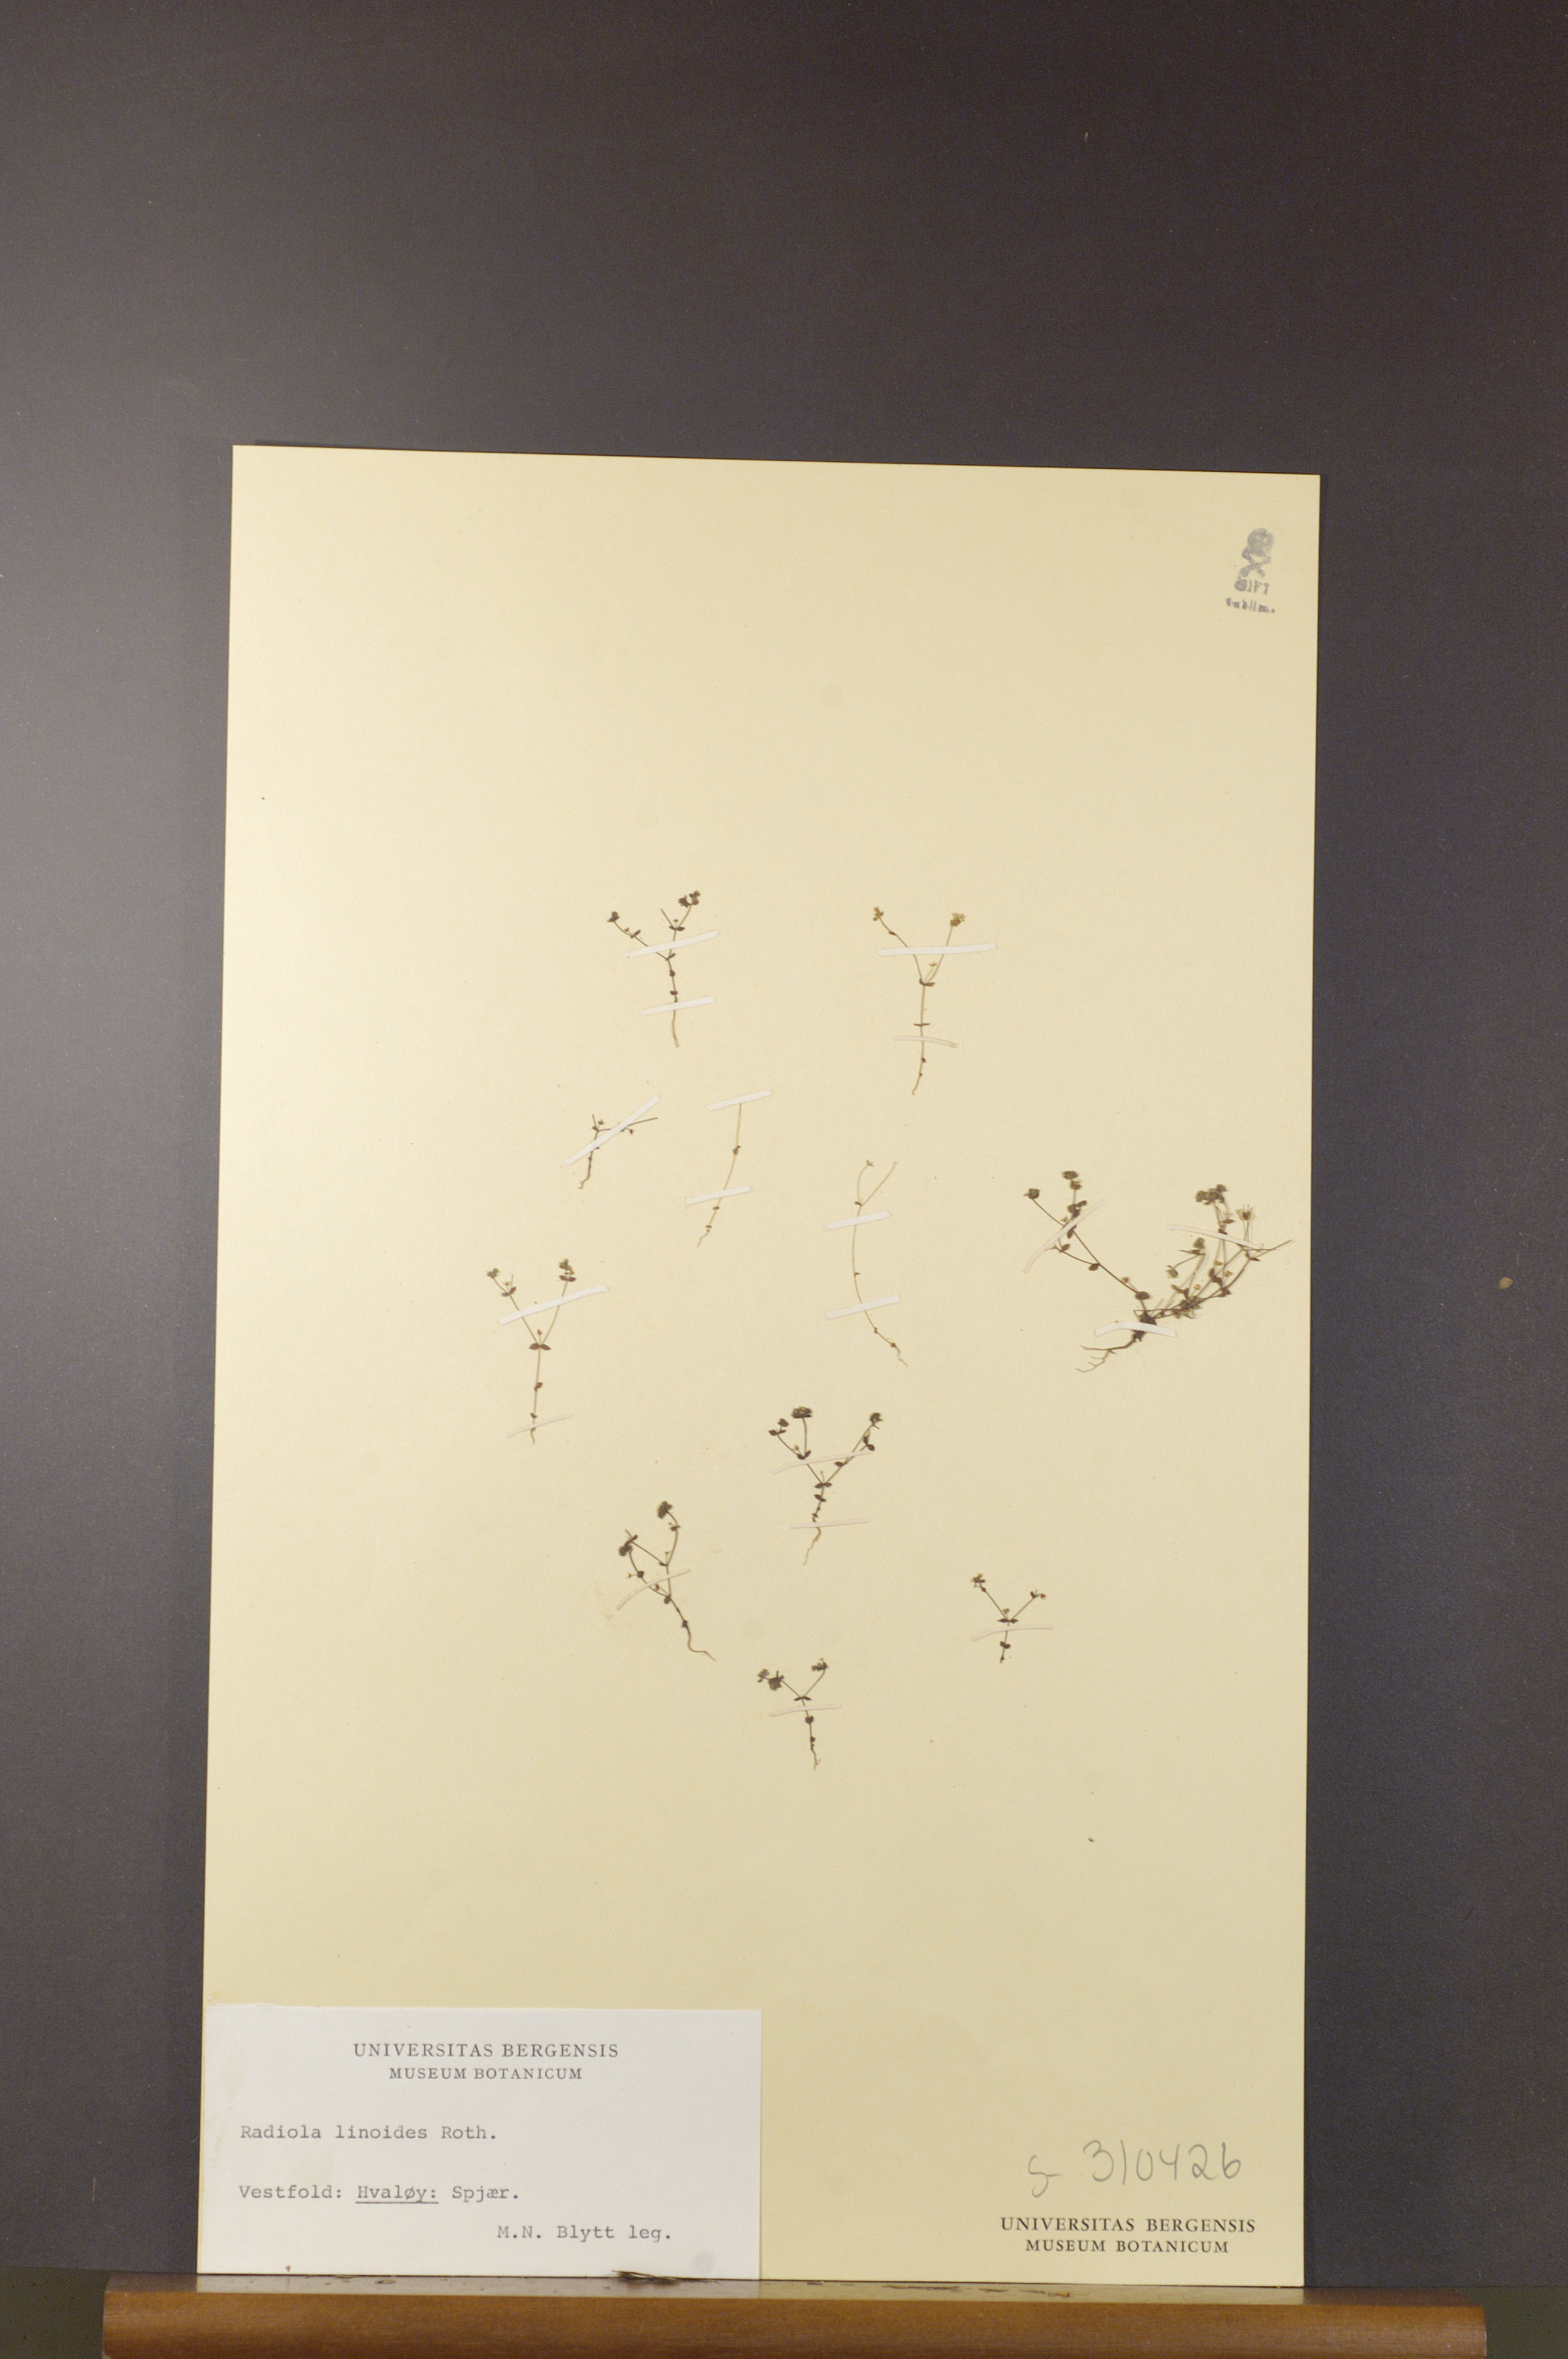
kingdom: Plantae
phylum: Tracheophyta
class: Magnoliopsida
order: Malpighiales
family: Linaceae
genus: Radiola
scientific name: Radiola linoides
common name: Allseed
